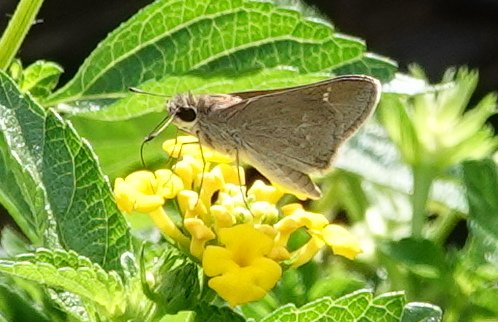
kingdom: Animalia
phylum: Arthropoda
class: Insecta
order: Lepidoptera
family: Hesperiidae
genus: Lerodea
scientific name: Lerodea eufala
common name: Eufala Skipper
